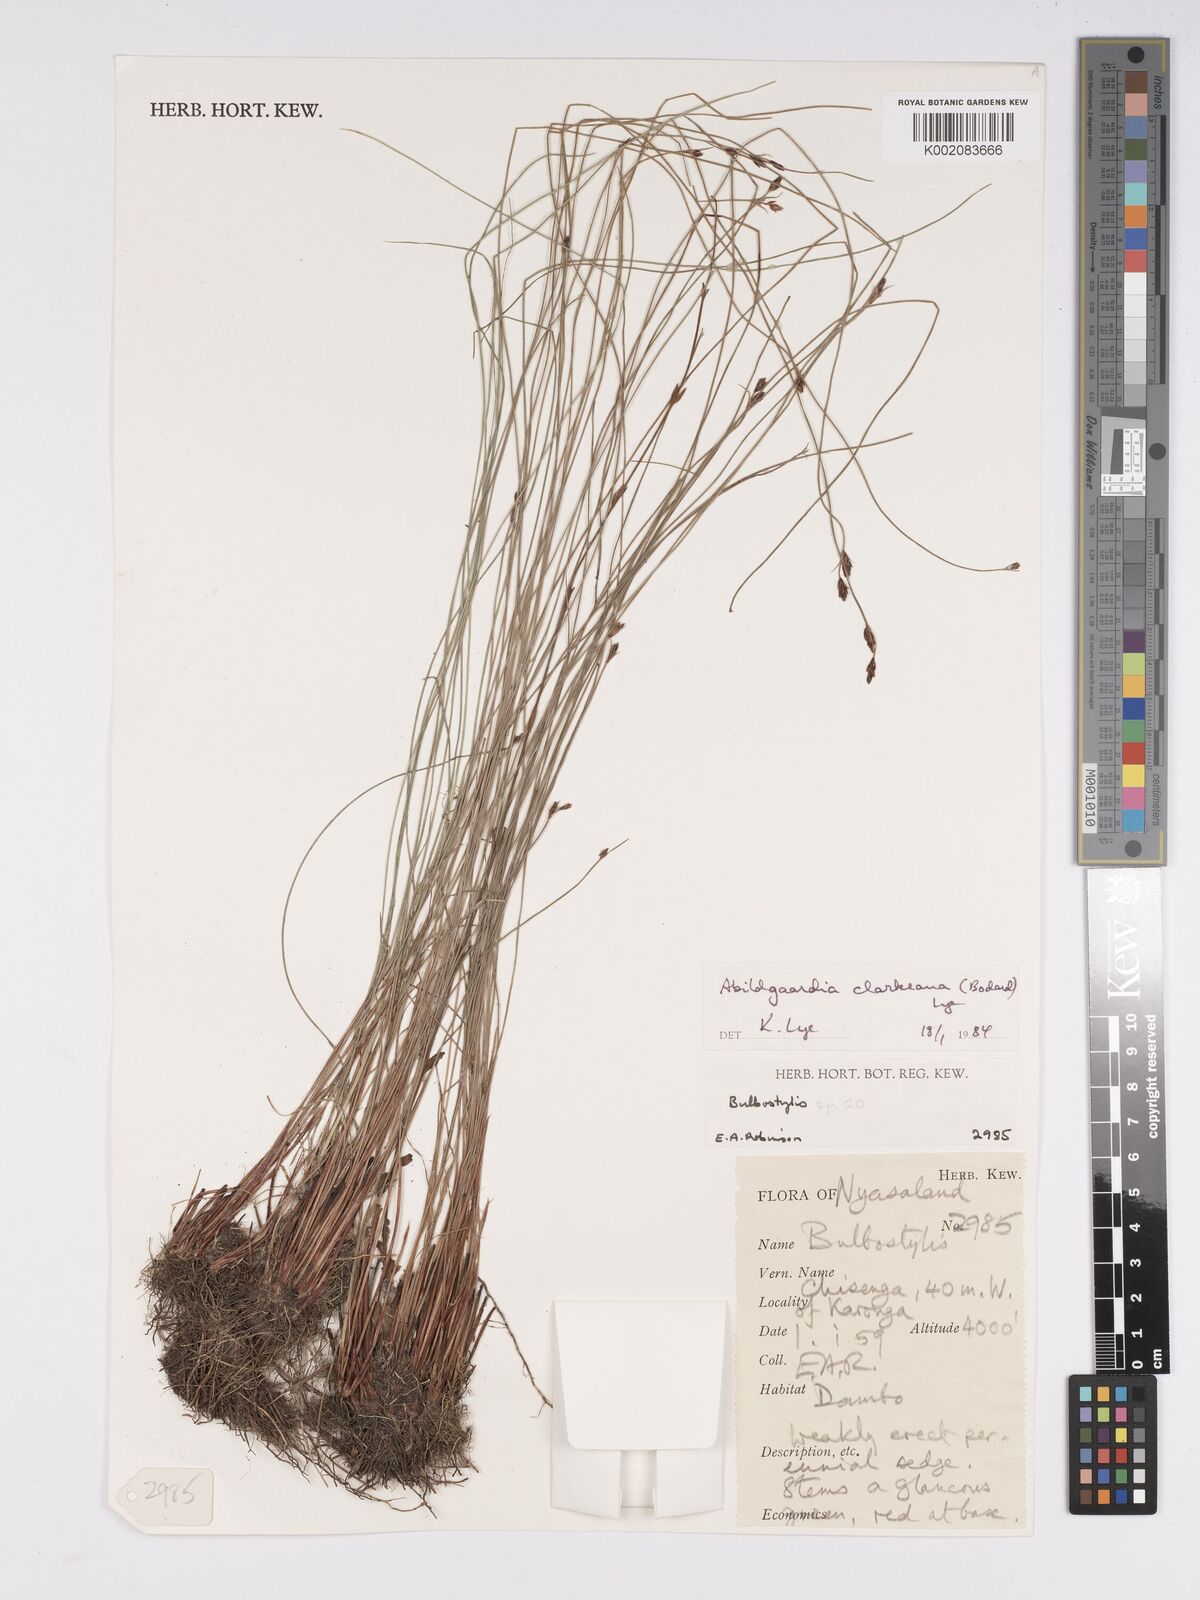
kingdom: Plantae
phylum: Tracheophyta
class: Liliopsida
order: Poales
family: Cyperaceae
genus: Bulbostylis
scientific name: Bulbostylis oritrephes
